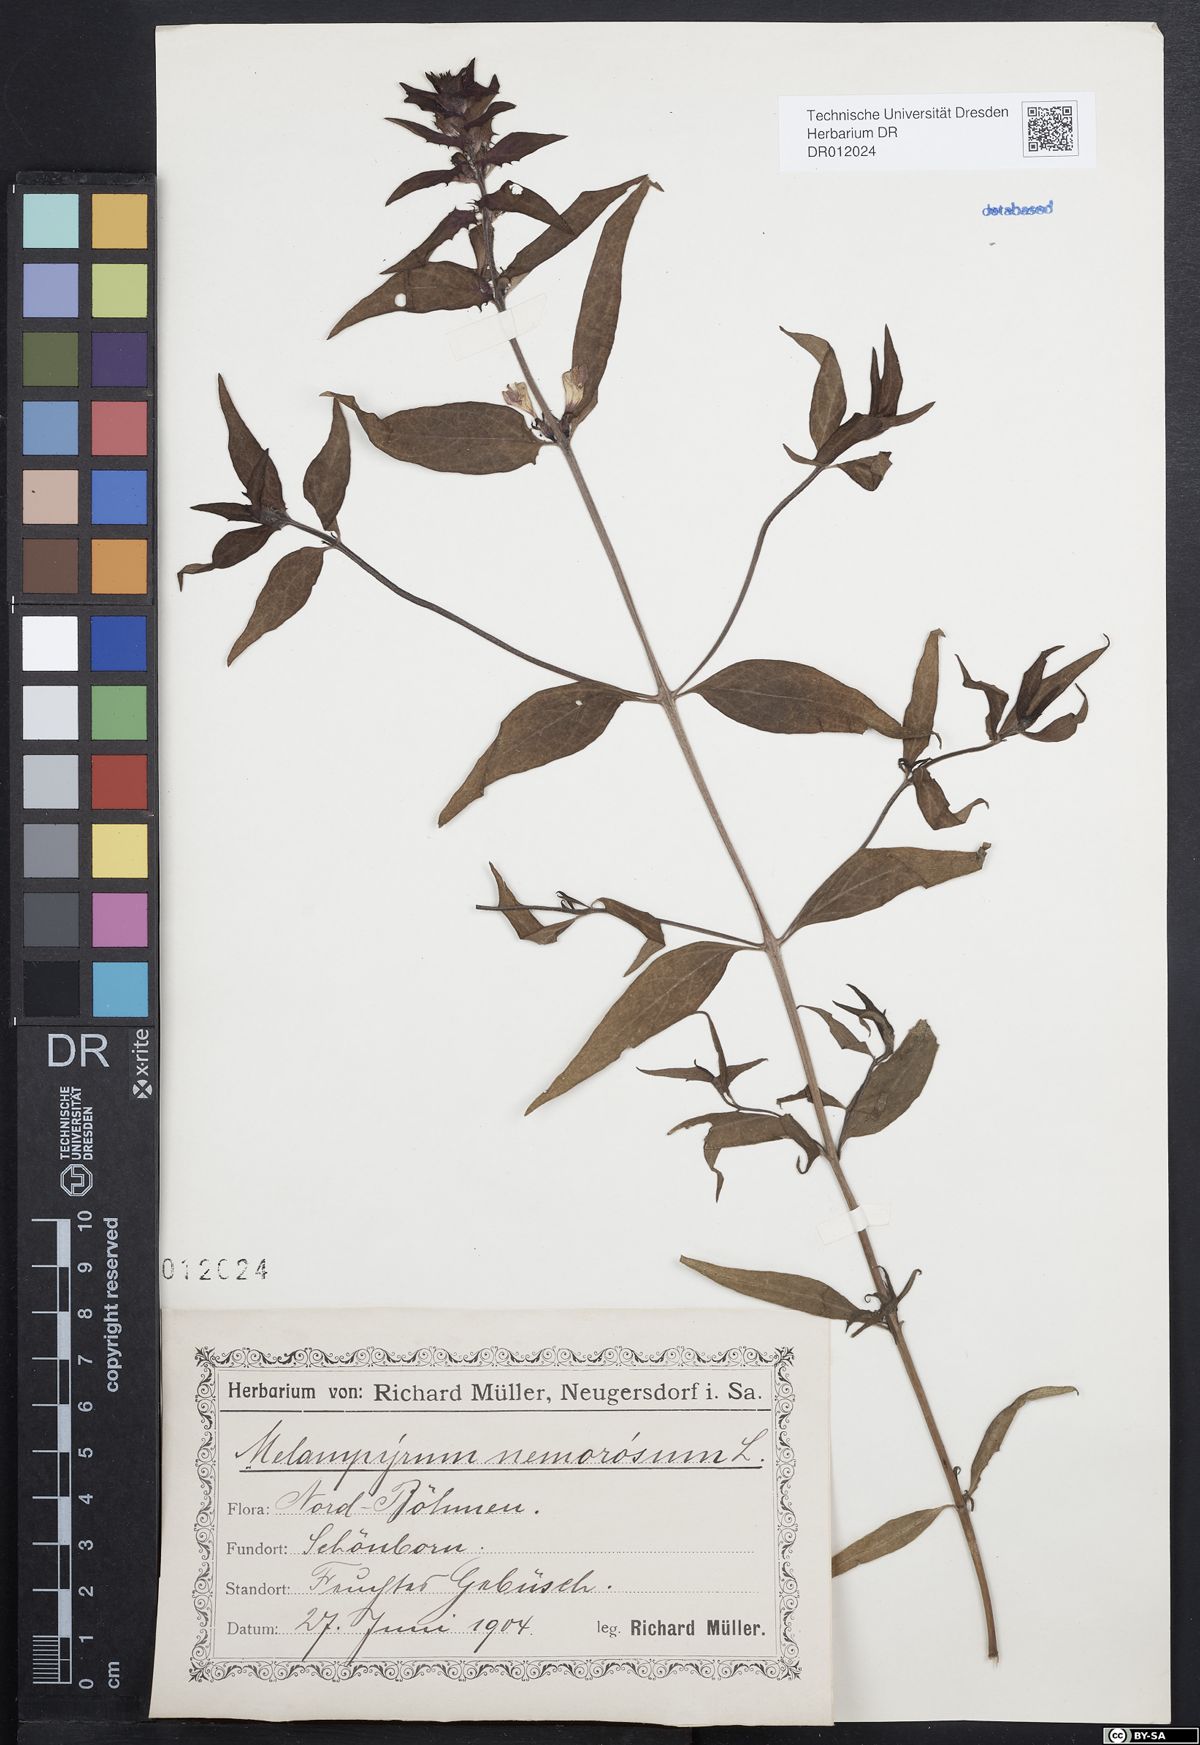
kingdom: Plantae
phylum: Tracheophyta
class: Magnoliopsida
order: Lamiales
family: Orobanchaceae
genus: Melampyrum
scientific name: Melampyrum nemorosum
